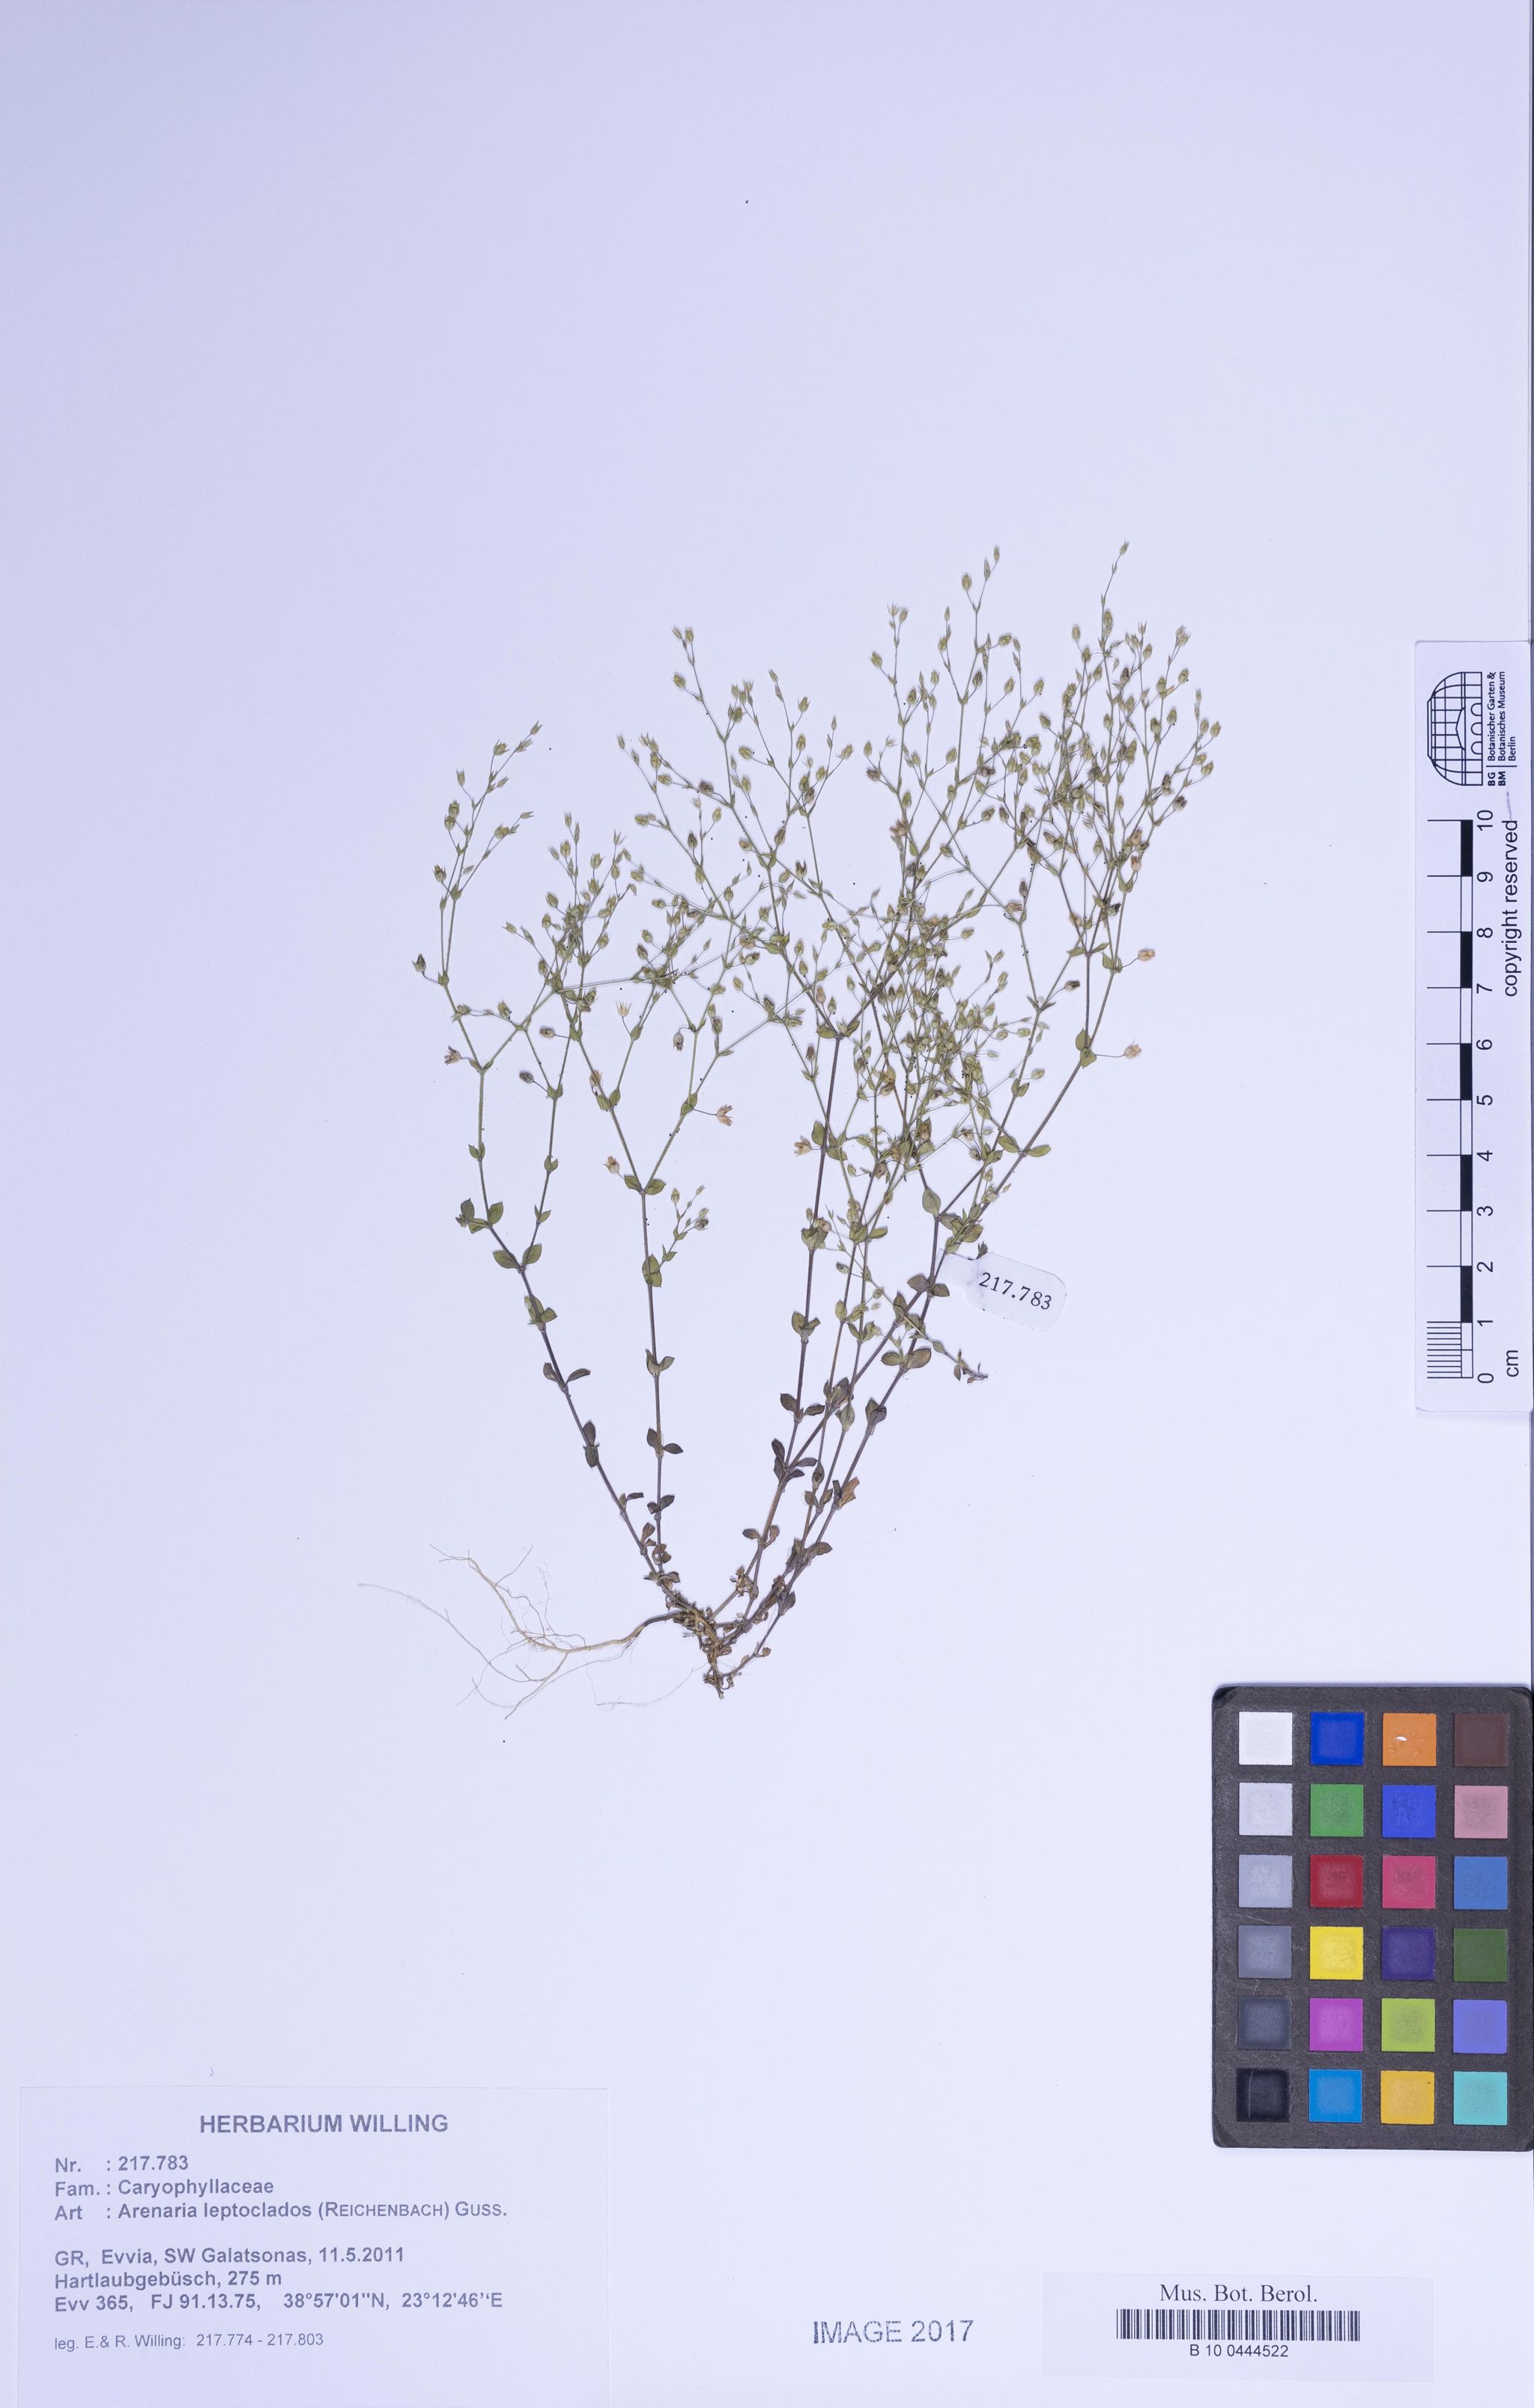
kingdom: Plantae
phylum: Tracheophyta
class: Magnoliopsida
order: Caryophyllales
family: Caryophyllaceae
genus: Arenaria
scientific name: Arenaria leptoclados
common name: Thyme-leaved sandwort
